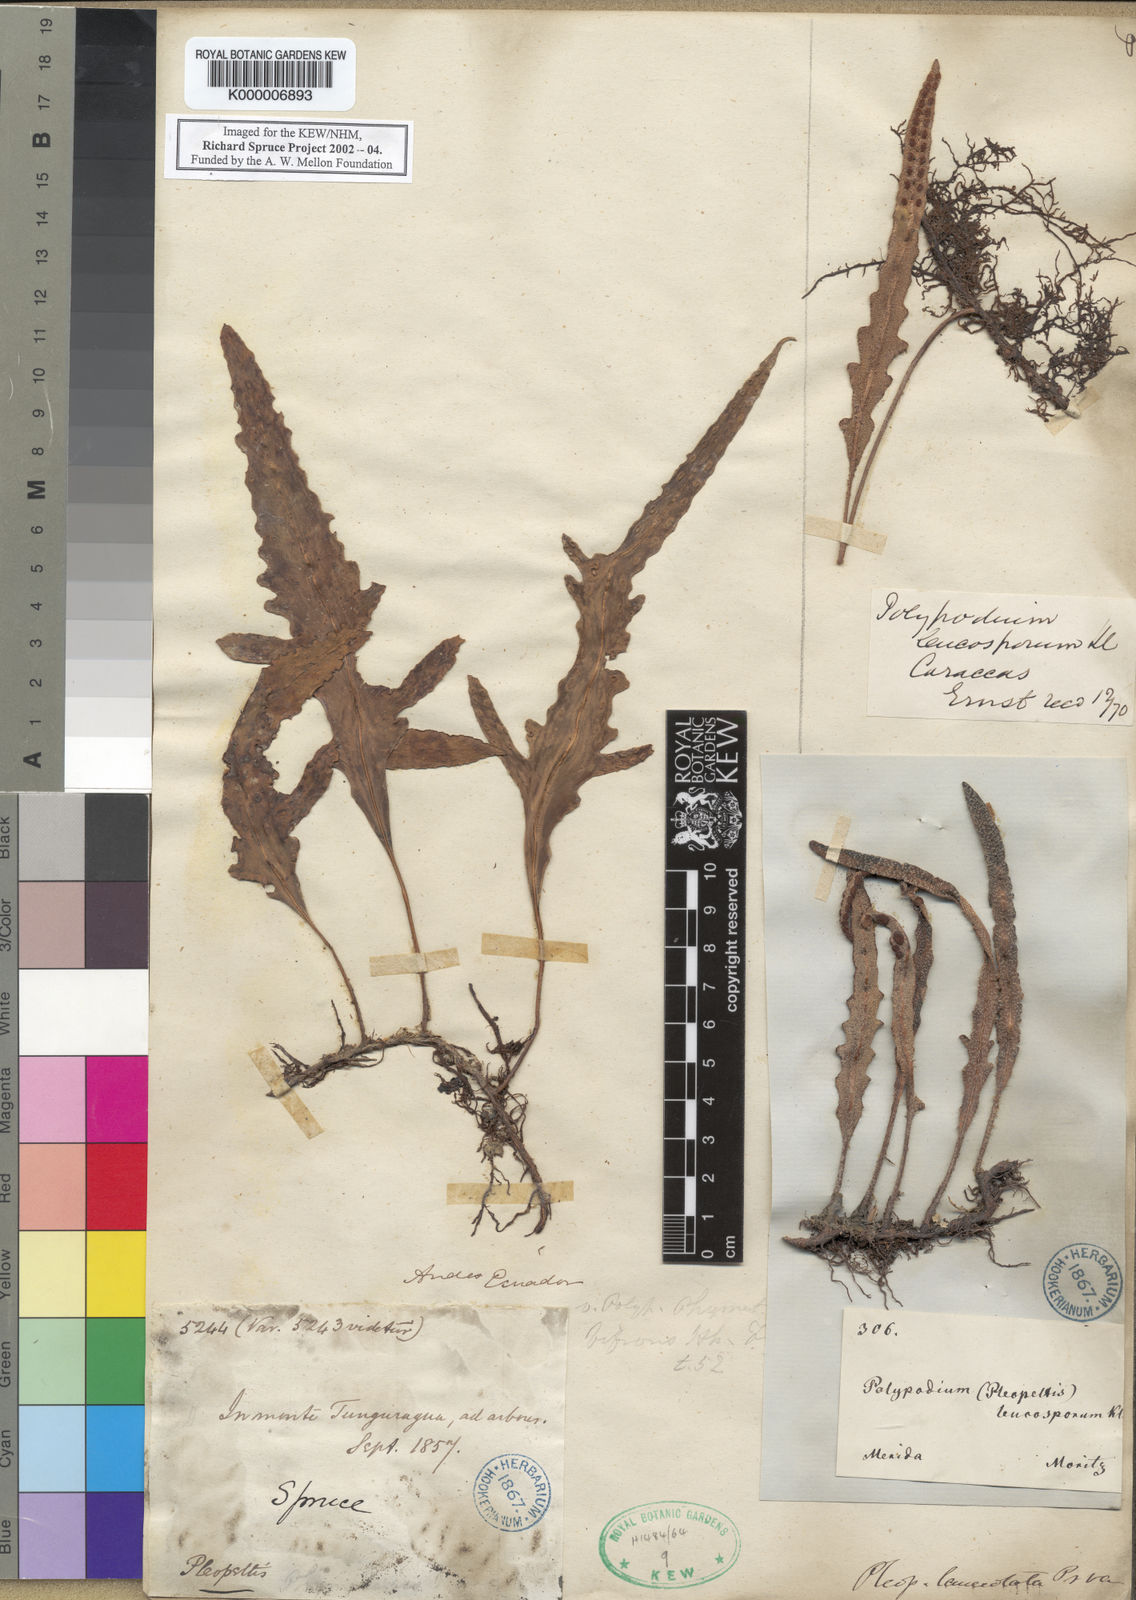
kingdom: Plantae
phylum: Tracheophyta
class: Polypodiopsida
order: Polypodiales
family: Polypodiaceae
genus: Pleopeltis
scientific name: Pleopeltis leucospora
